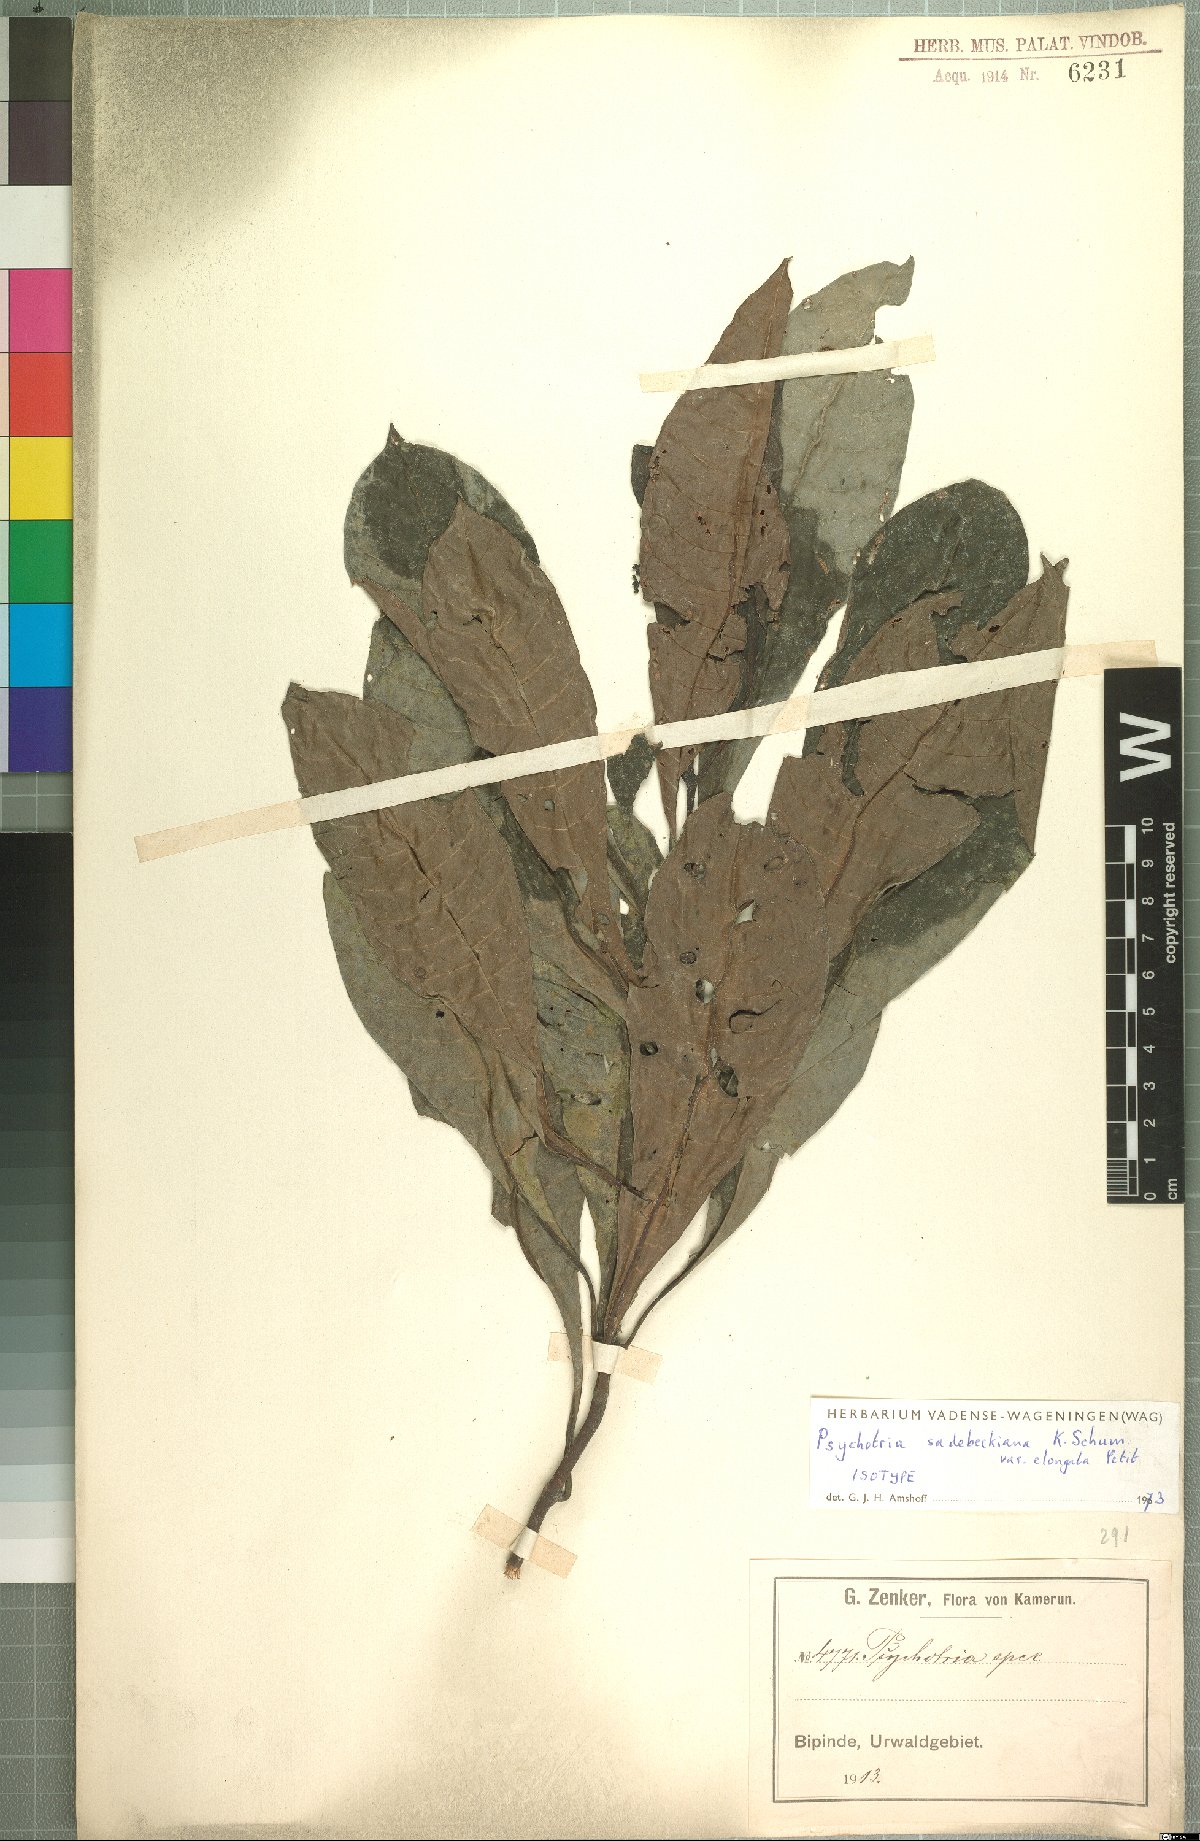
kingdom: Plantae
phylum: Tracheophyta
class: Magnoliopsida
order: Gentianales
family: Rubiaceae
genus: Psychotria
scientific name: Psychotria sadebeckiana
